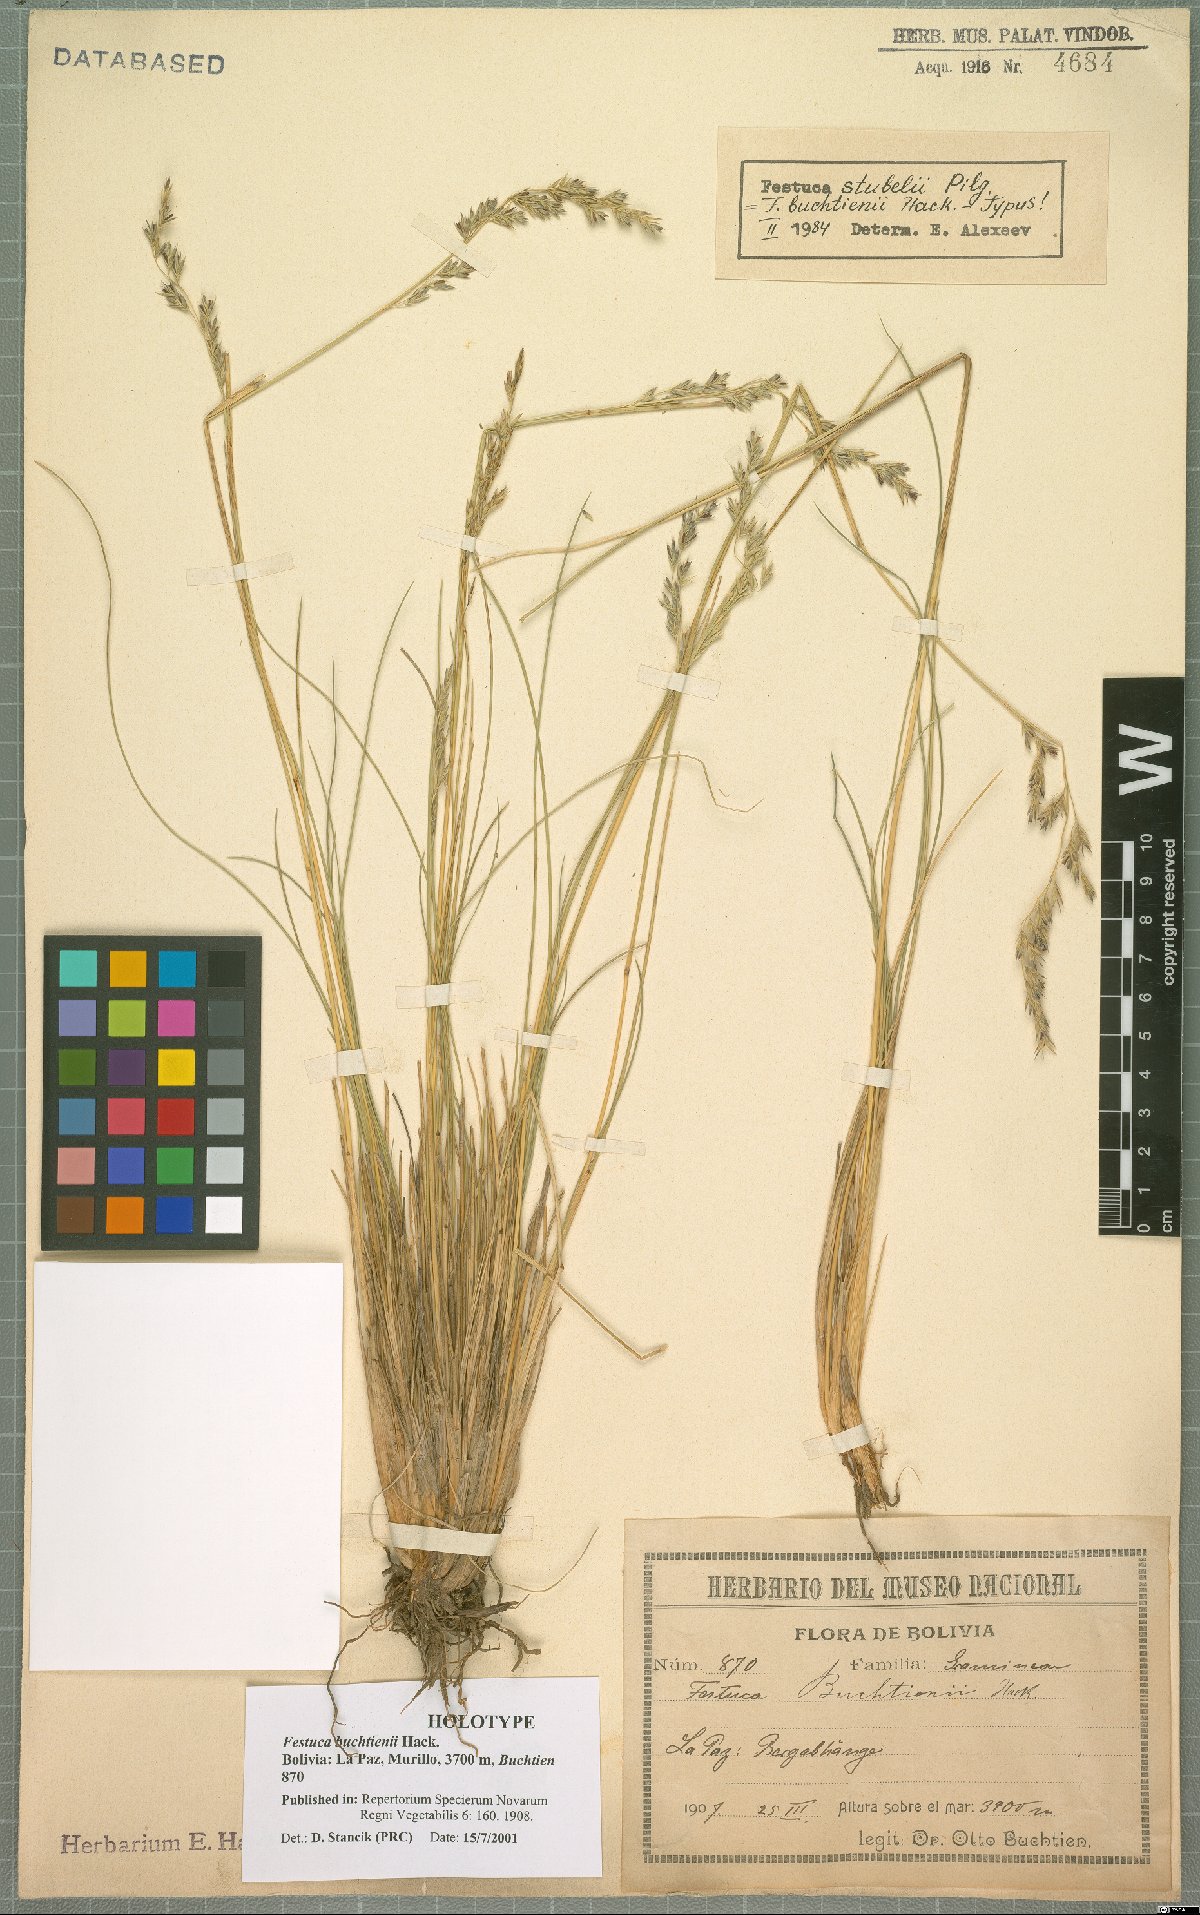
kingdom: Plantae
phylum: Tracheophyta
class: Liliopsida
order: Poales
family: Poaceae
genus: Festuca
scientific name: Festuca humilior
